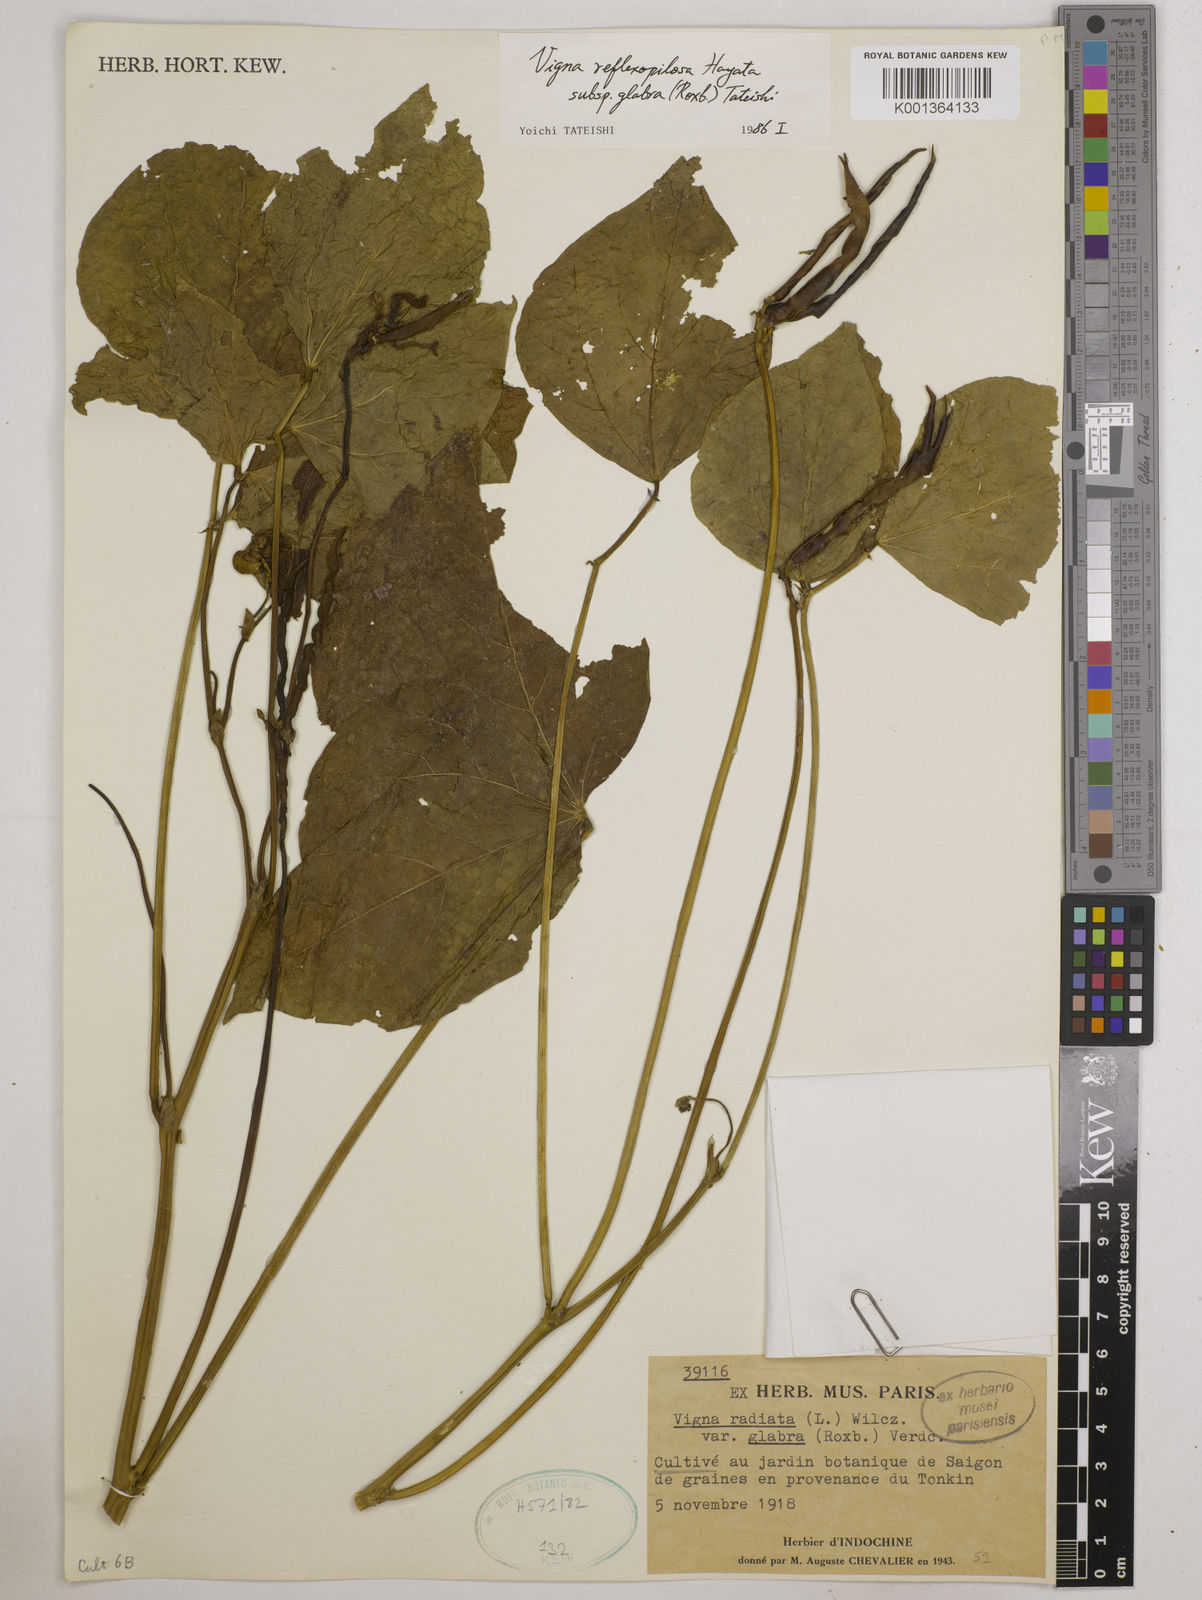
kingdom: Plantae
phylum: Tracheophyta
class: Magnoliopsida
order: Fabales
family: Fabaceae
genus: Vigna
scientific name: Vigna glabrescens
